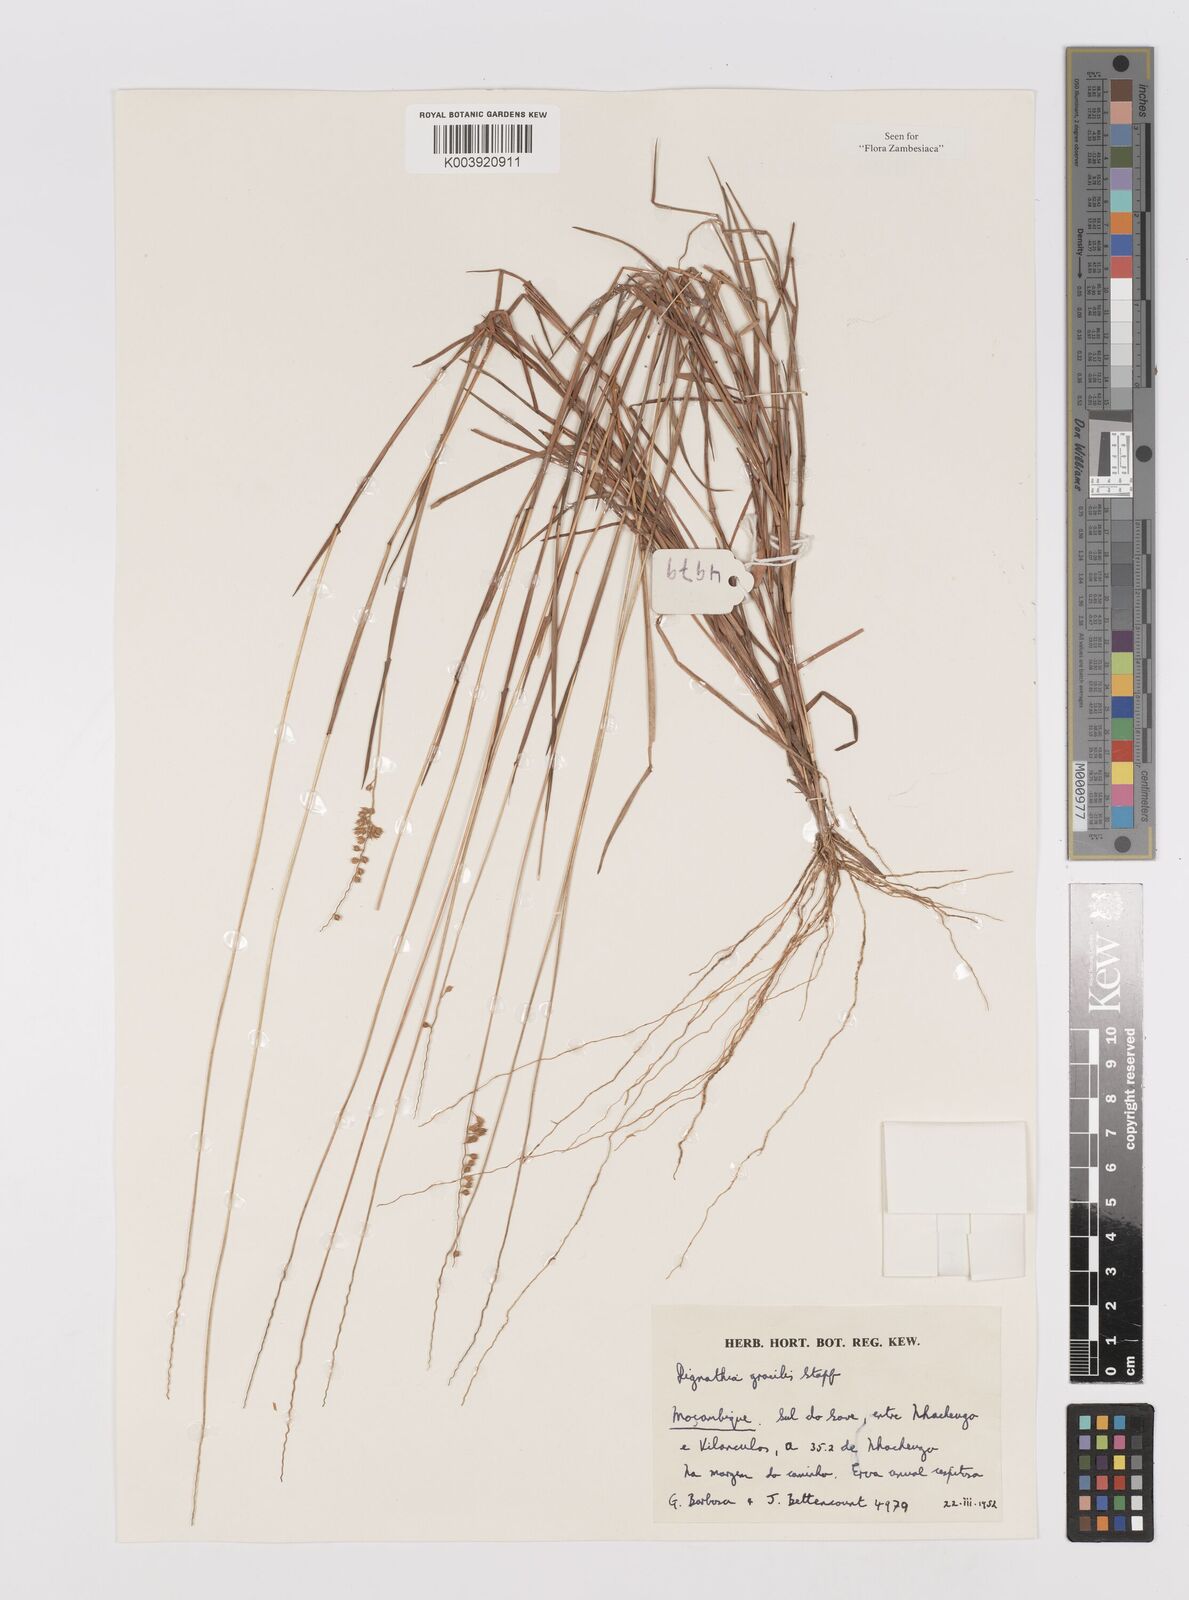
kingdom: Plantae
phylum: Tracheophyta
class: Liliopsida
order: Poales
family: Poaceae
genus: Dignathia
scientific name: Dignathia gracilis
